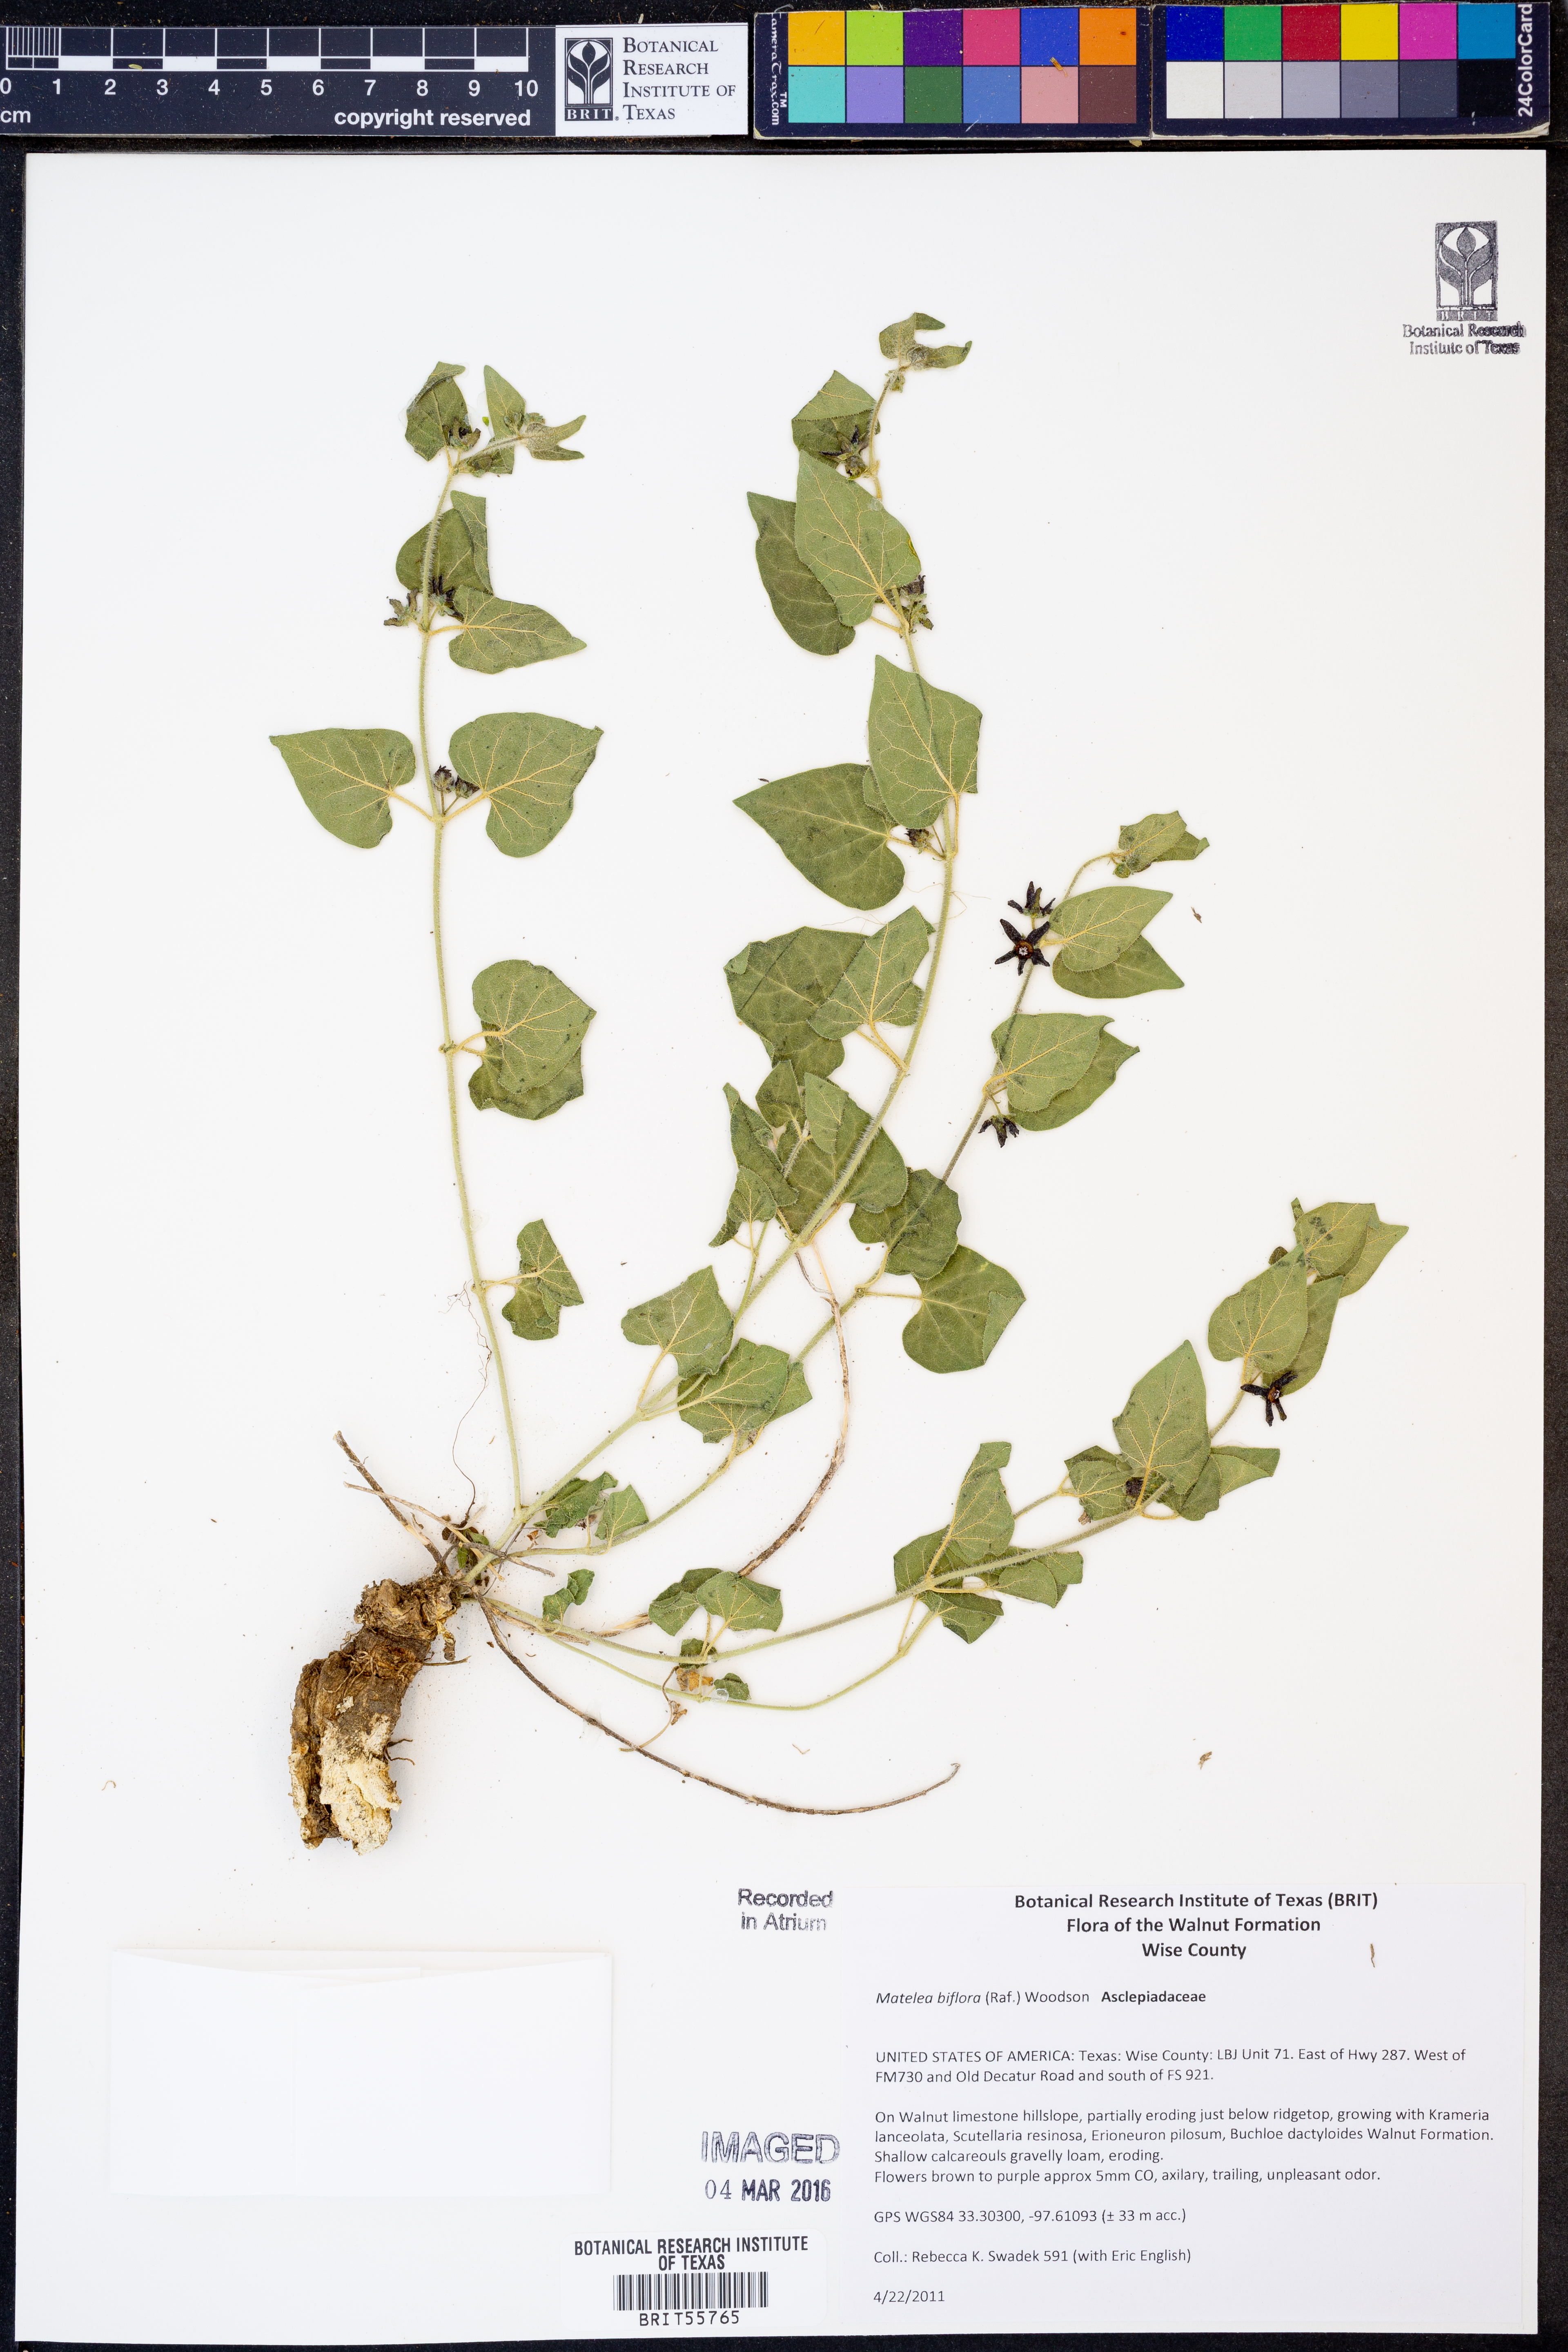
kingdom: Plantae
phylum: Tracheophyta
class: Magnoliopsida
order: Gentianales
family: Apocynaceae
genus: Chthamalia
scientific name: Chthamalia biflora
